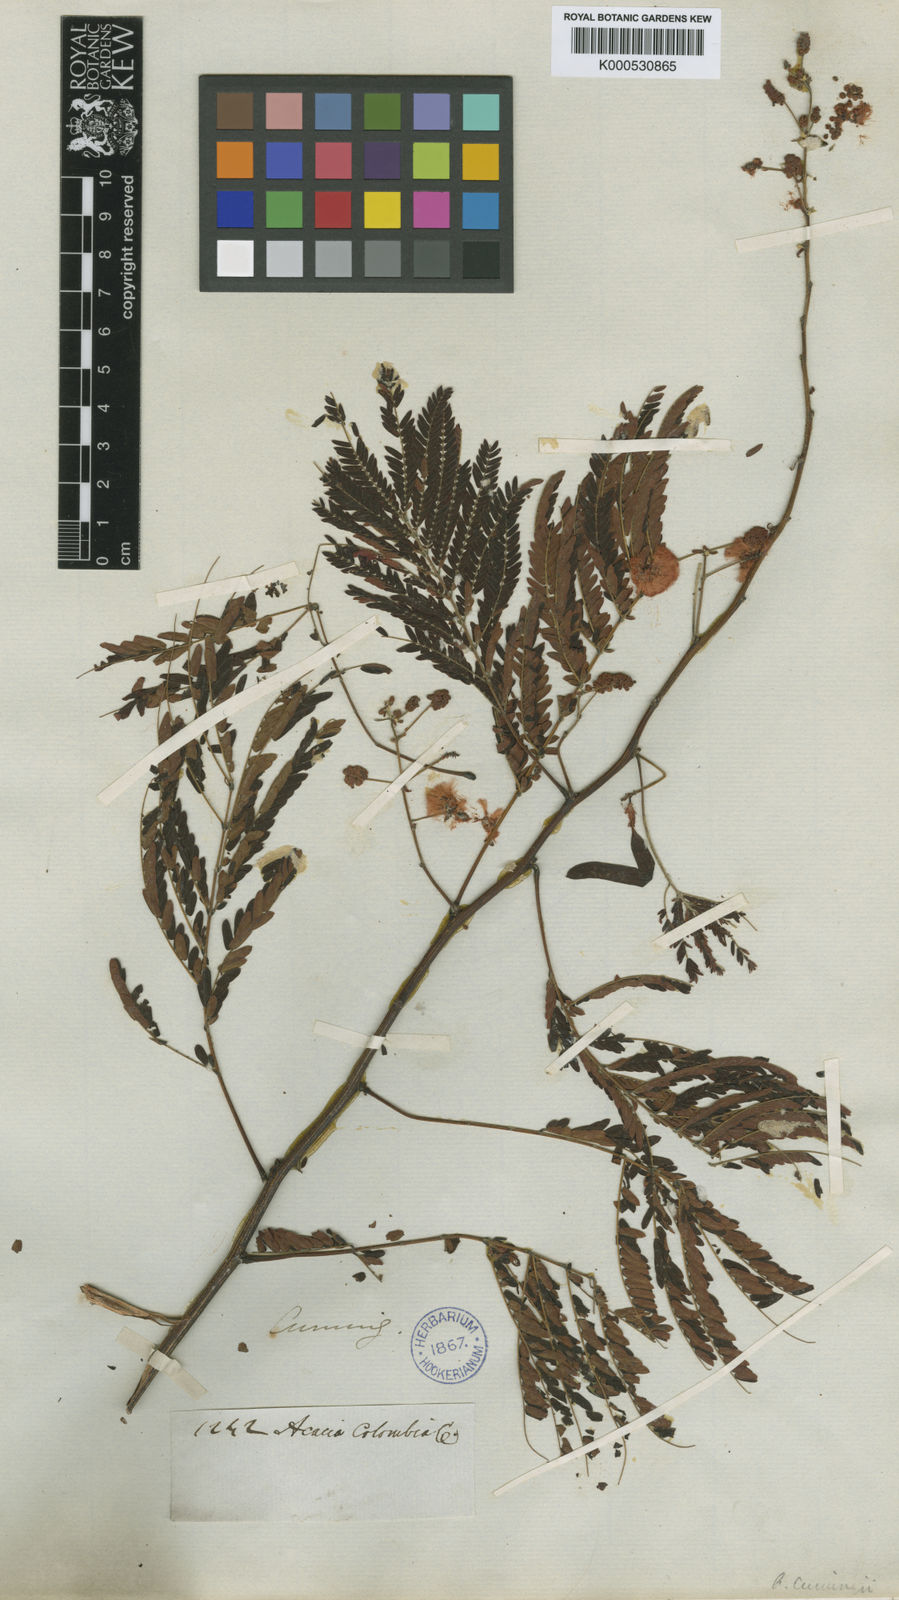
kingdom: Plantae
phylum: Tracheophyta
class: Magnoliopsida
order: Fabales
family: Fabaceae
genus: Acaciella
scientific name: Acaciella villosa
